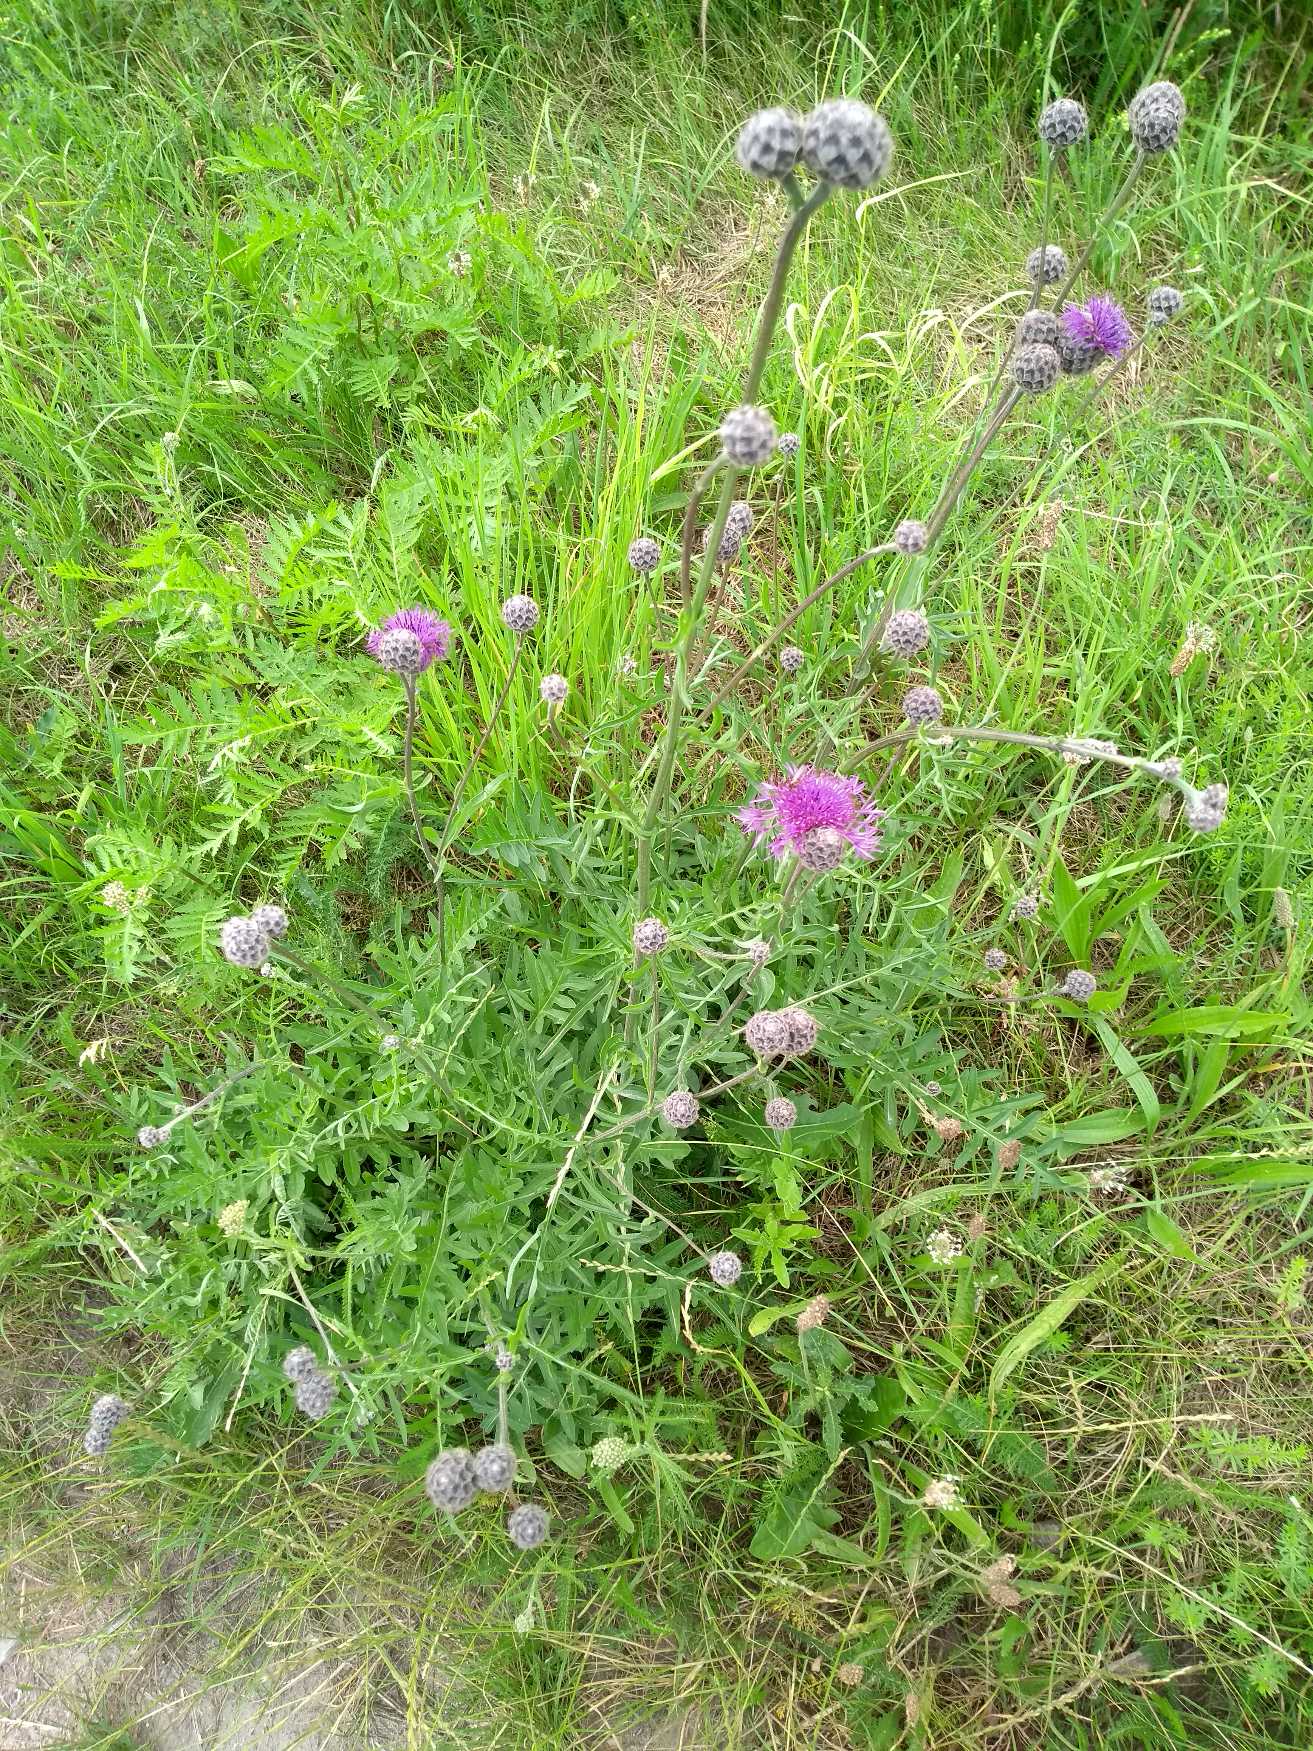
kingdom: Plantae
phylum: Tracheophyta
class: Magnoliopsida
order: Asterales
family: Asteraceae
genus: Centaurea
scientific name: Centaurea scabiosa
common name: Stor knopurt
